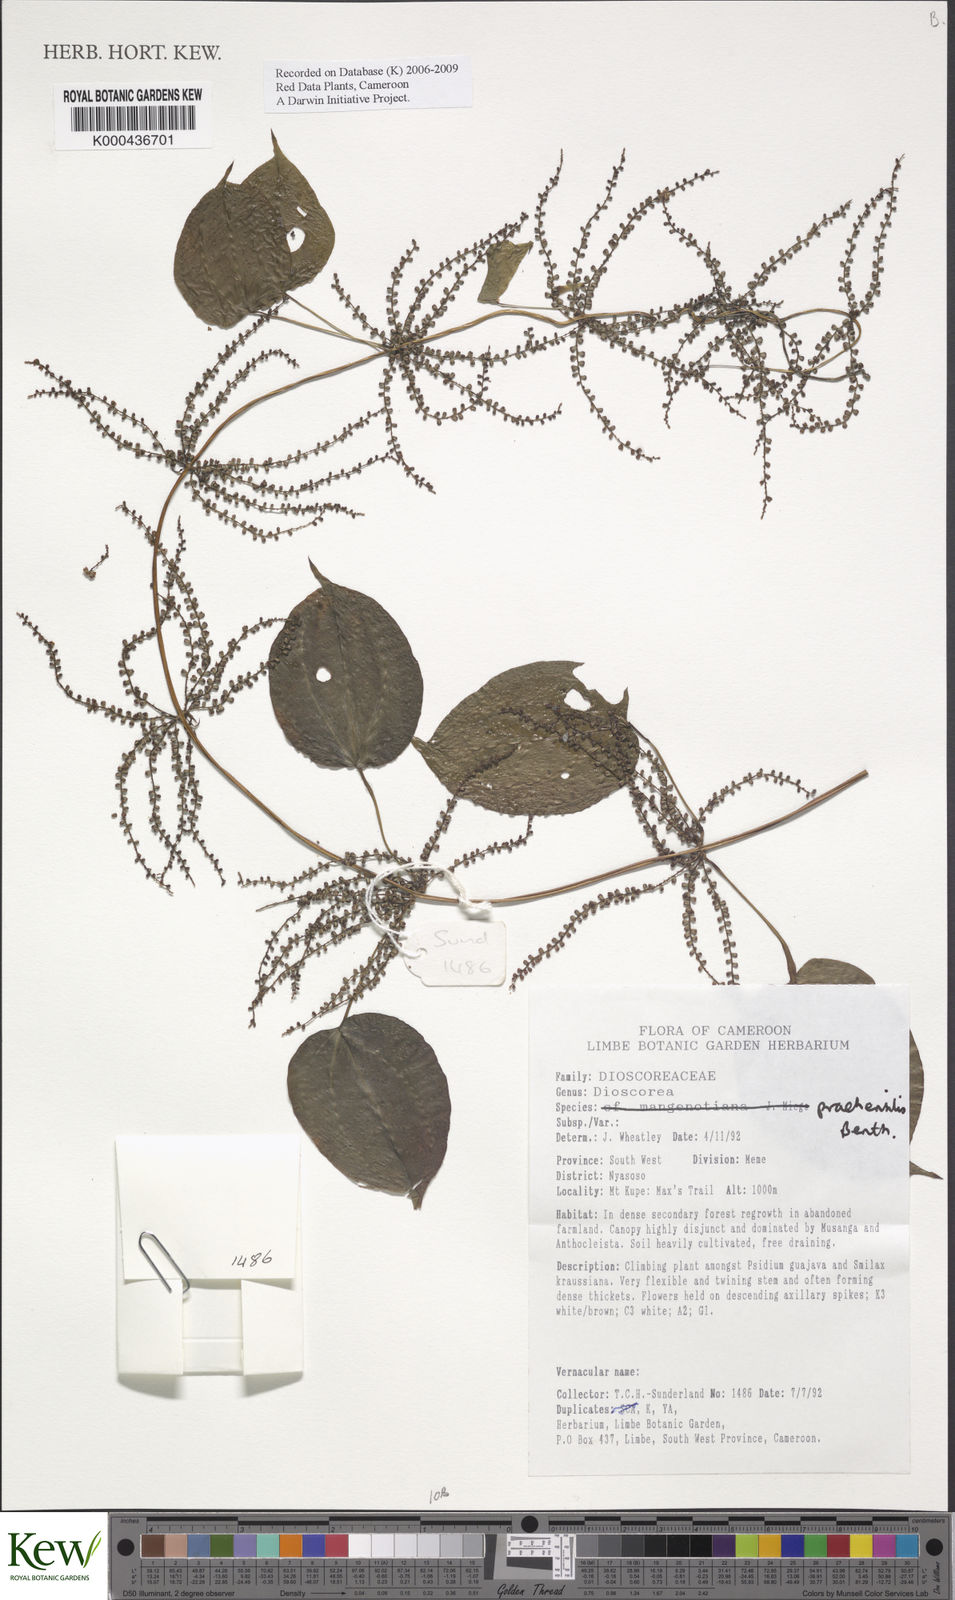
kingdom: Plantae
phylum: Tracheophyta
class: Liliopsida
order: Dioscoreales
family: Dioscoreaceae
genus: Dioscorea
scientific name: Dioscorea praehensilis
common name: Bush yam
